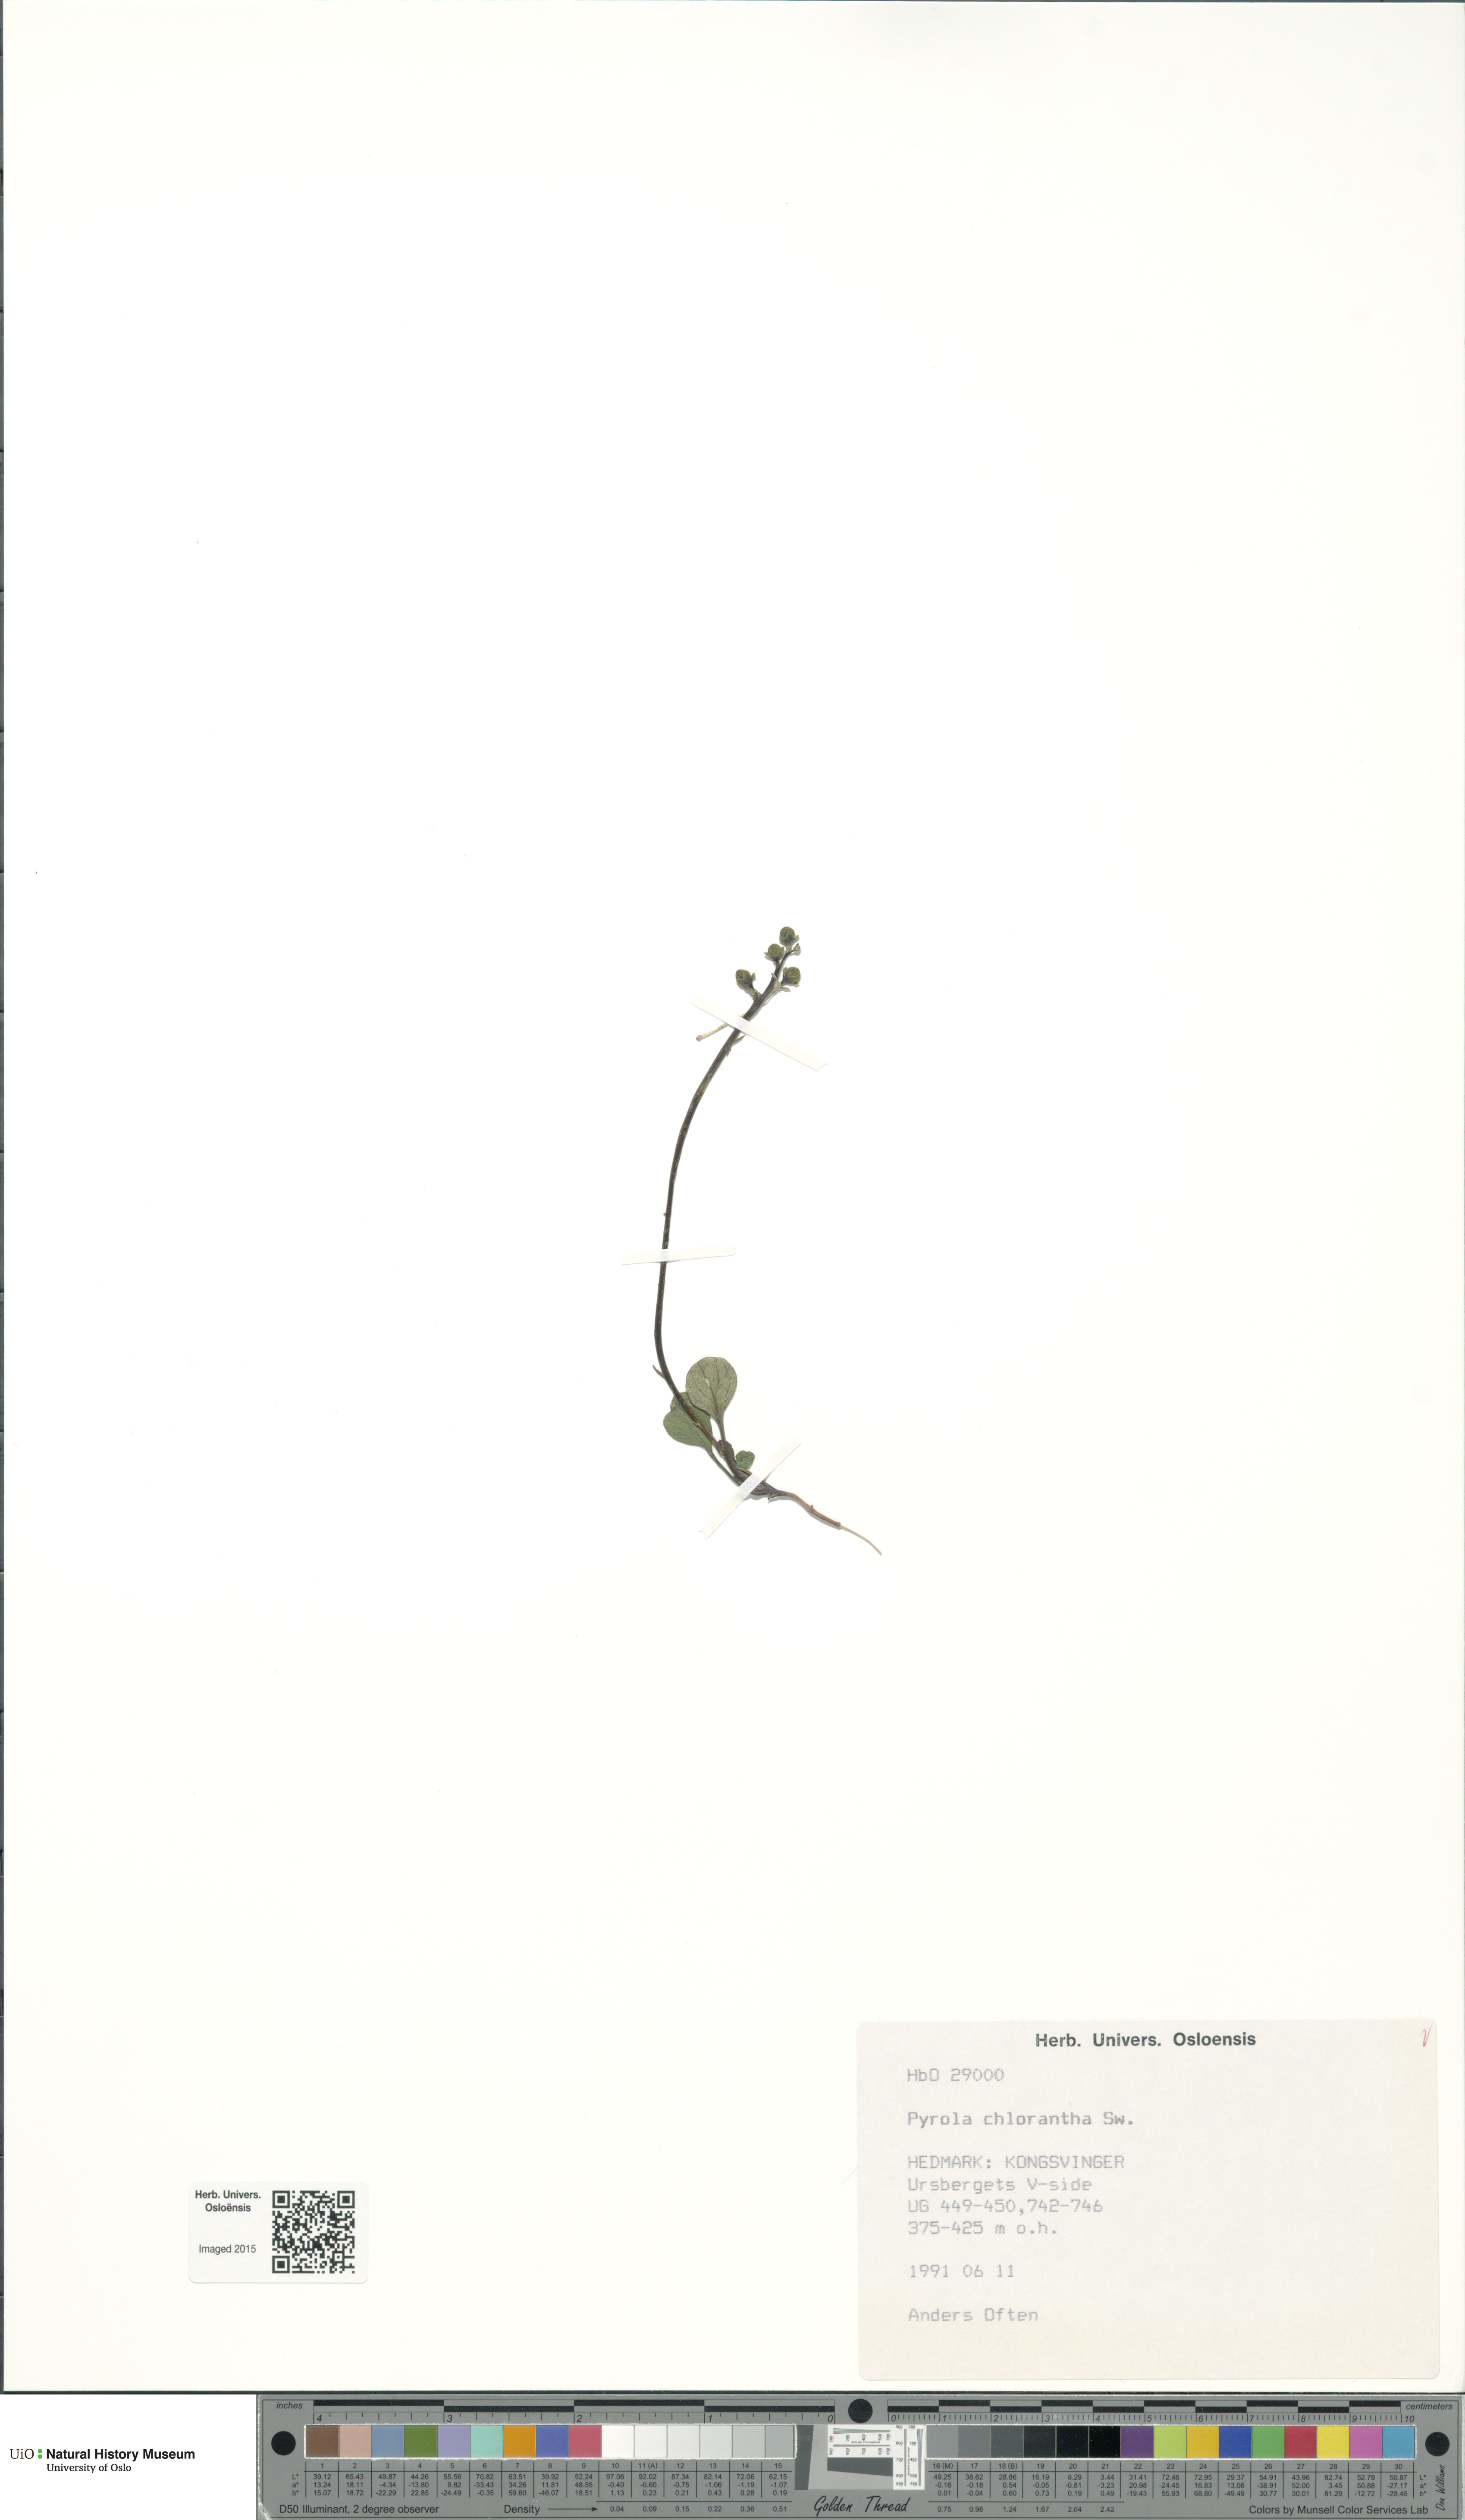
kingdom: Plantae
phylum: Tracheophyta
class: Magnoliopsida
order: Ericales
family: Ericaceae
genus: Pyrola
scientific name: Pyrola chlorantha
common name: Green wintergreen
